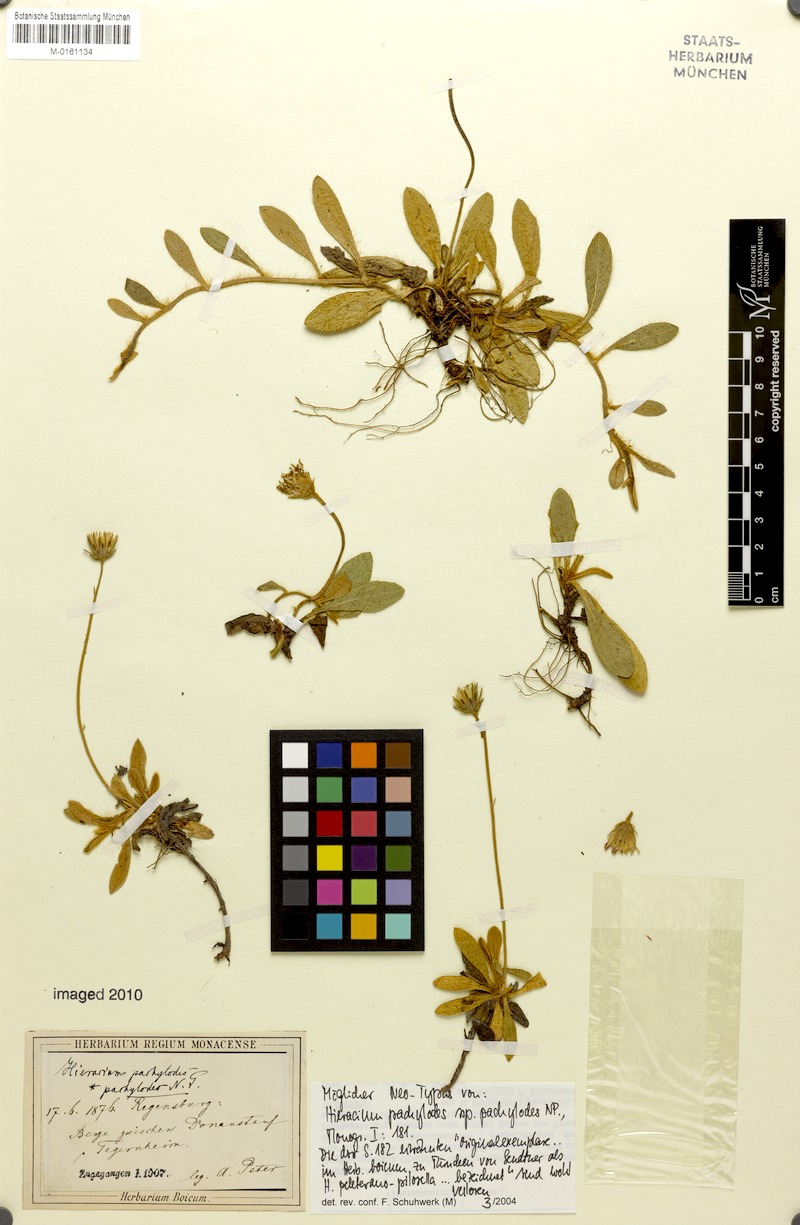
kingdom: Plantae
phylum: Tracheophyta
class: Magnoliopsida
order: Asterales
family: Asteraceae
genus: Pilosella
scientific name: Pilosella longisquama
